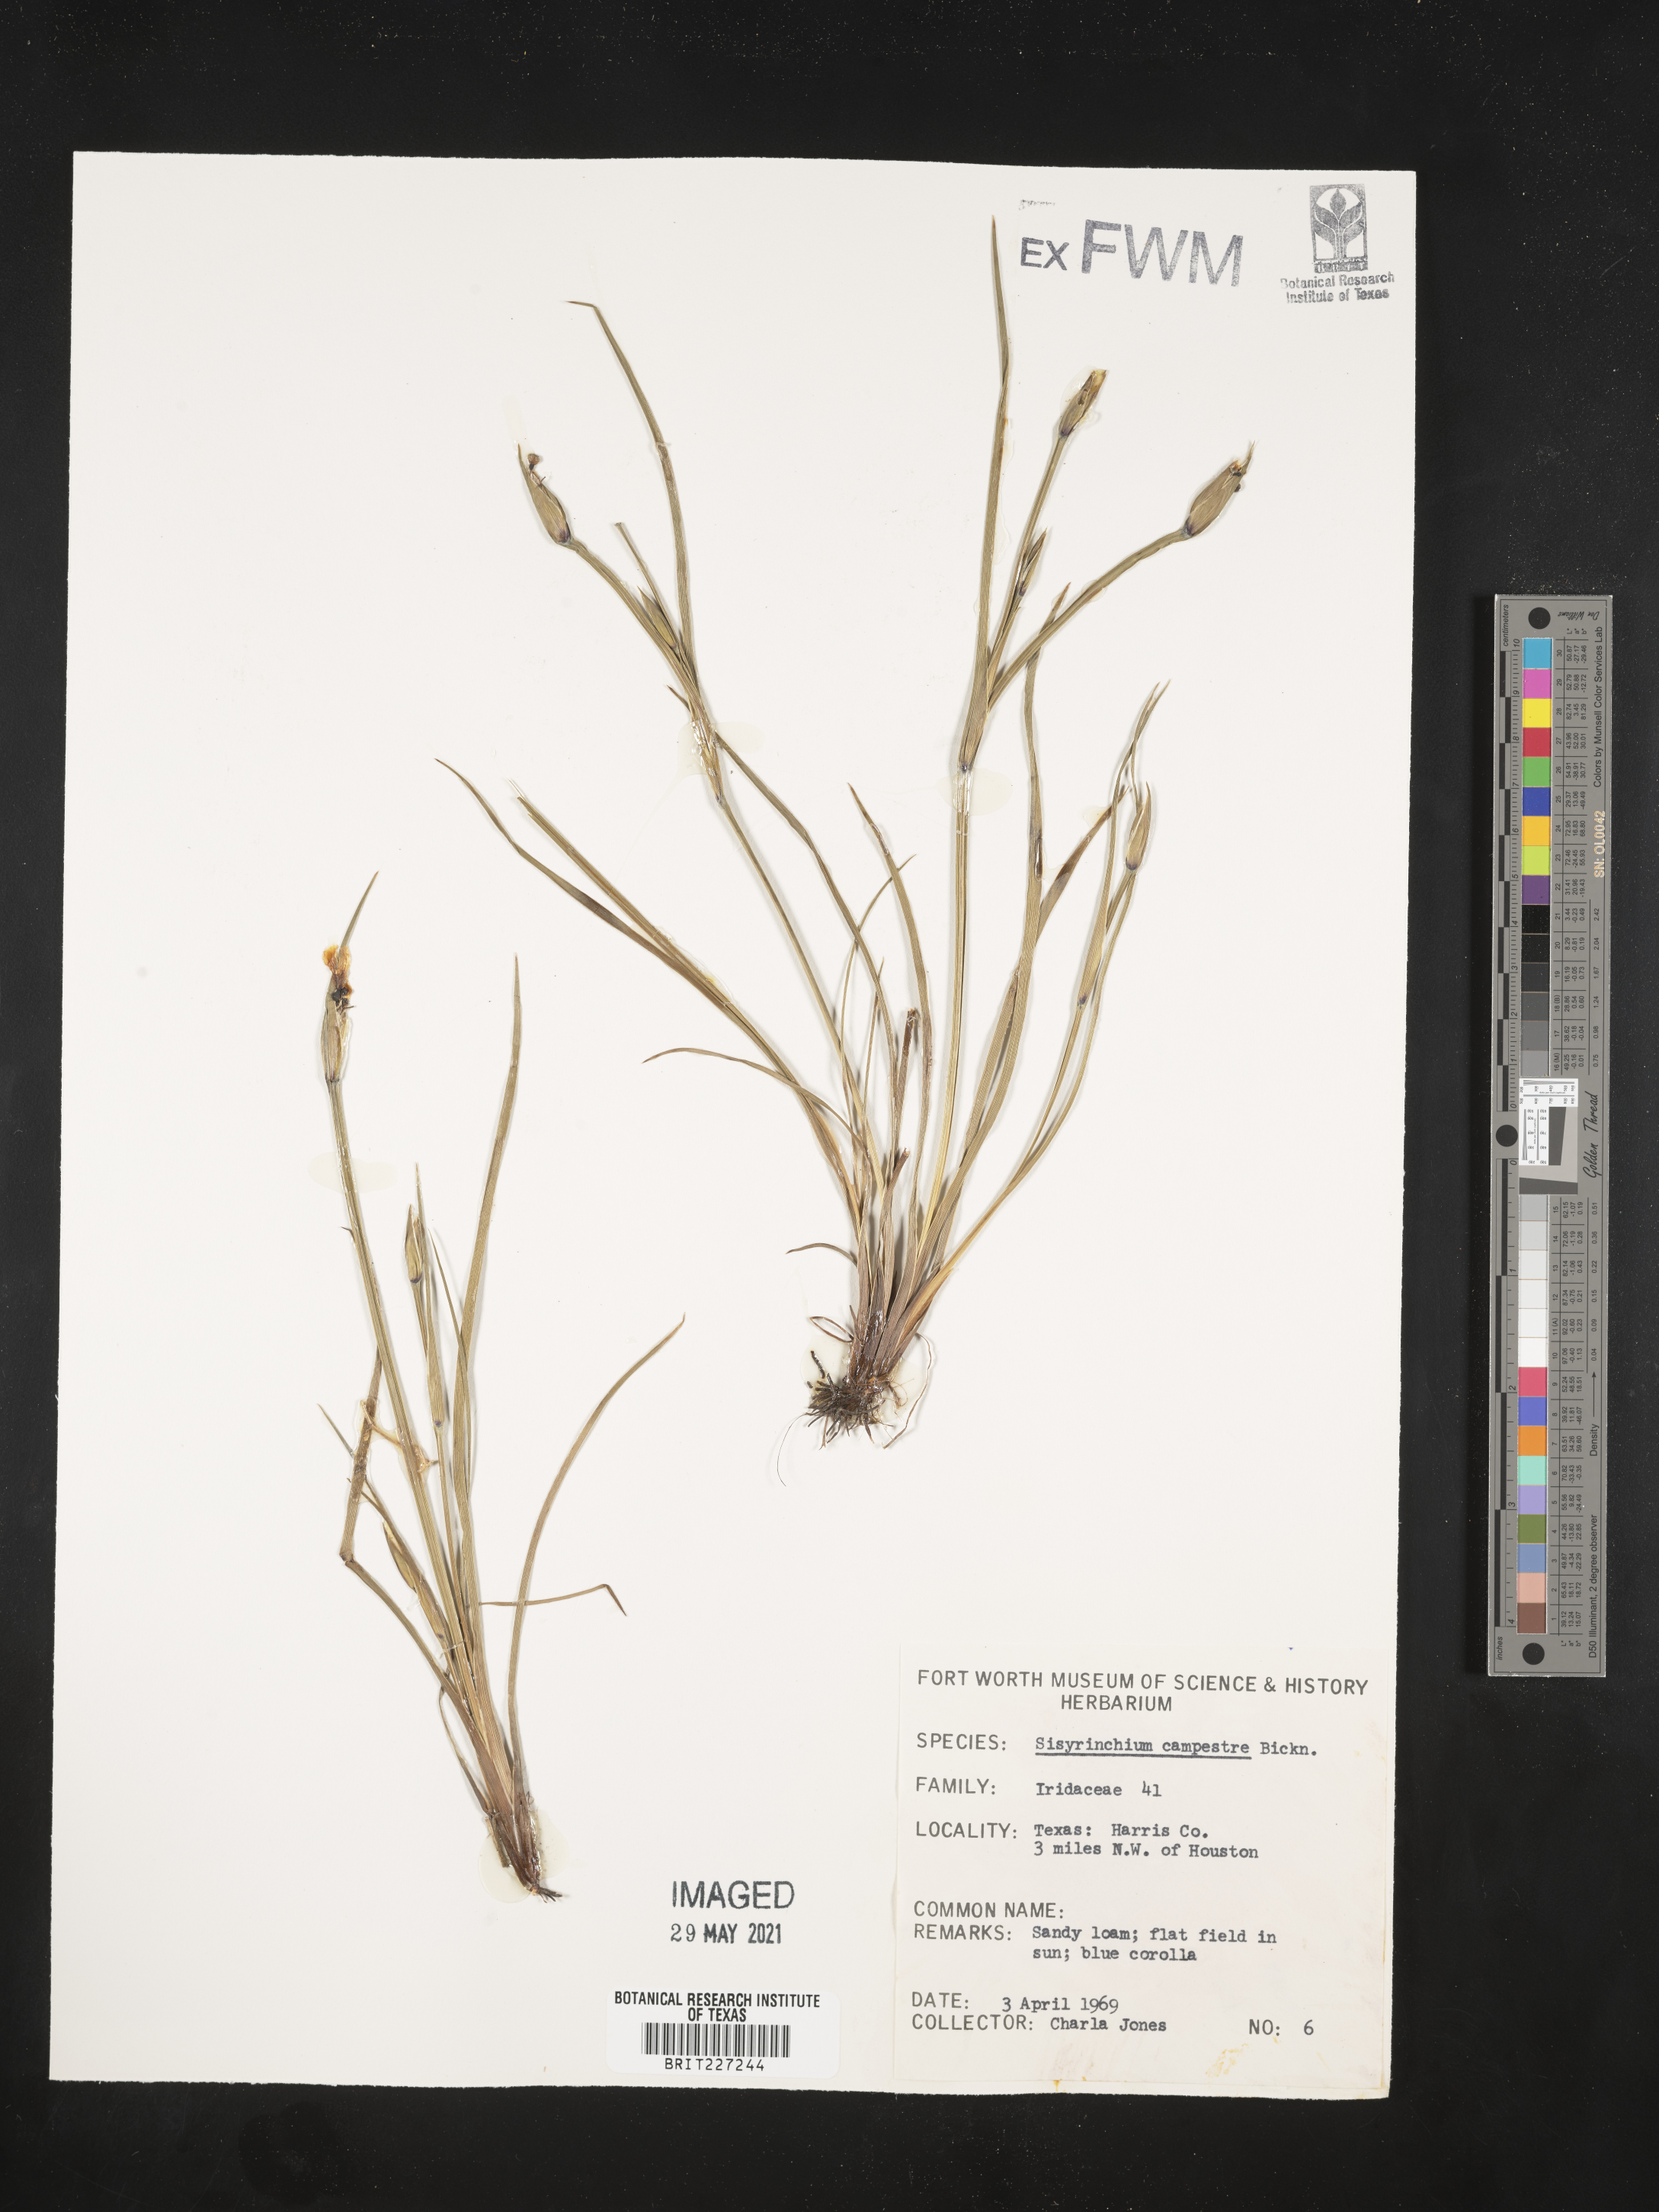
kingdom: Plantae
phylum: Tracheophyta
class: Liliopsida
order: Asparagales
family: Iridaceae
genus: Sisyrinchium
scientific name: Sisyrinchium campestre
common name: Prairie blue-eyed-grass
